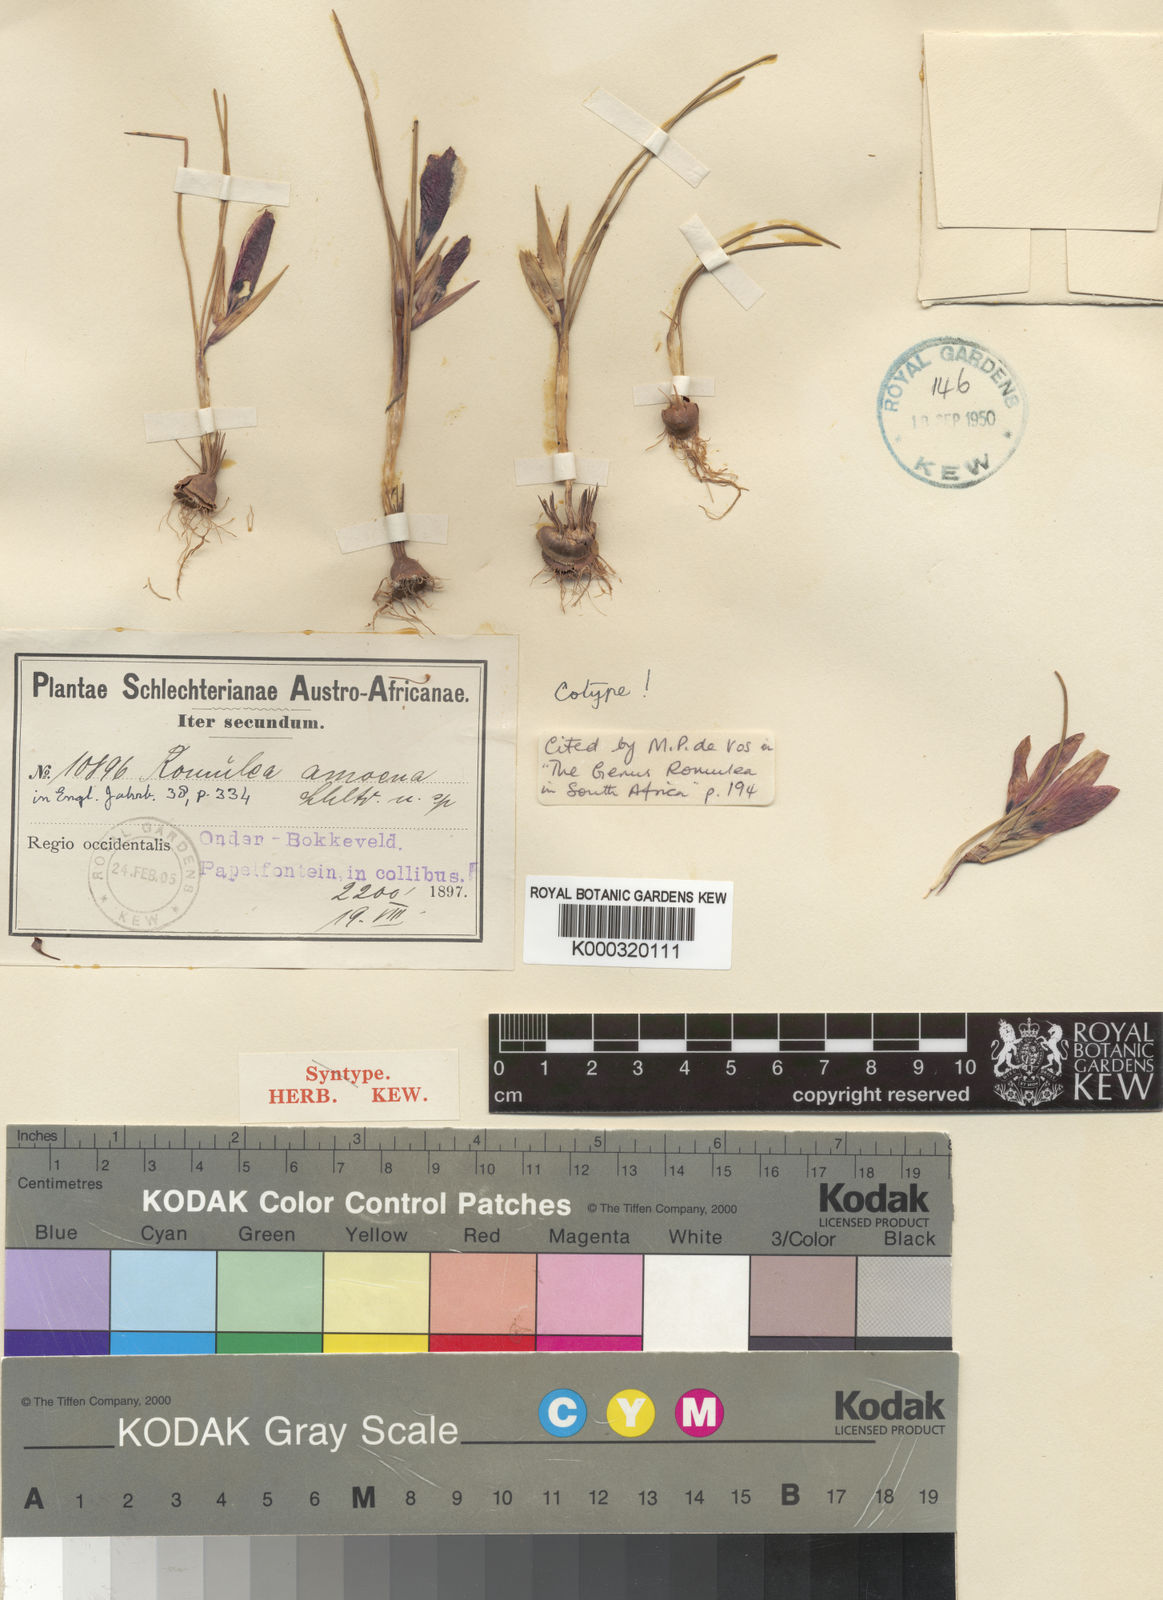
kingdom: Plantae
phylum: Tracheophyta
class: Liliopsida
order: Asparagales
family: Iridaceae
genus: Romulea
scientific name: Romulea
